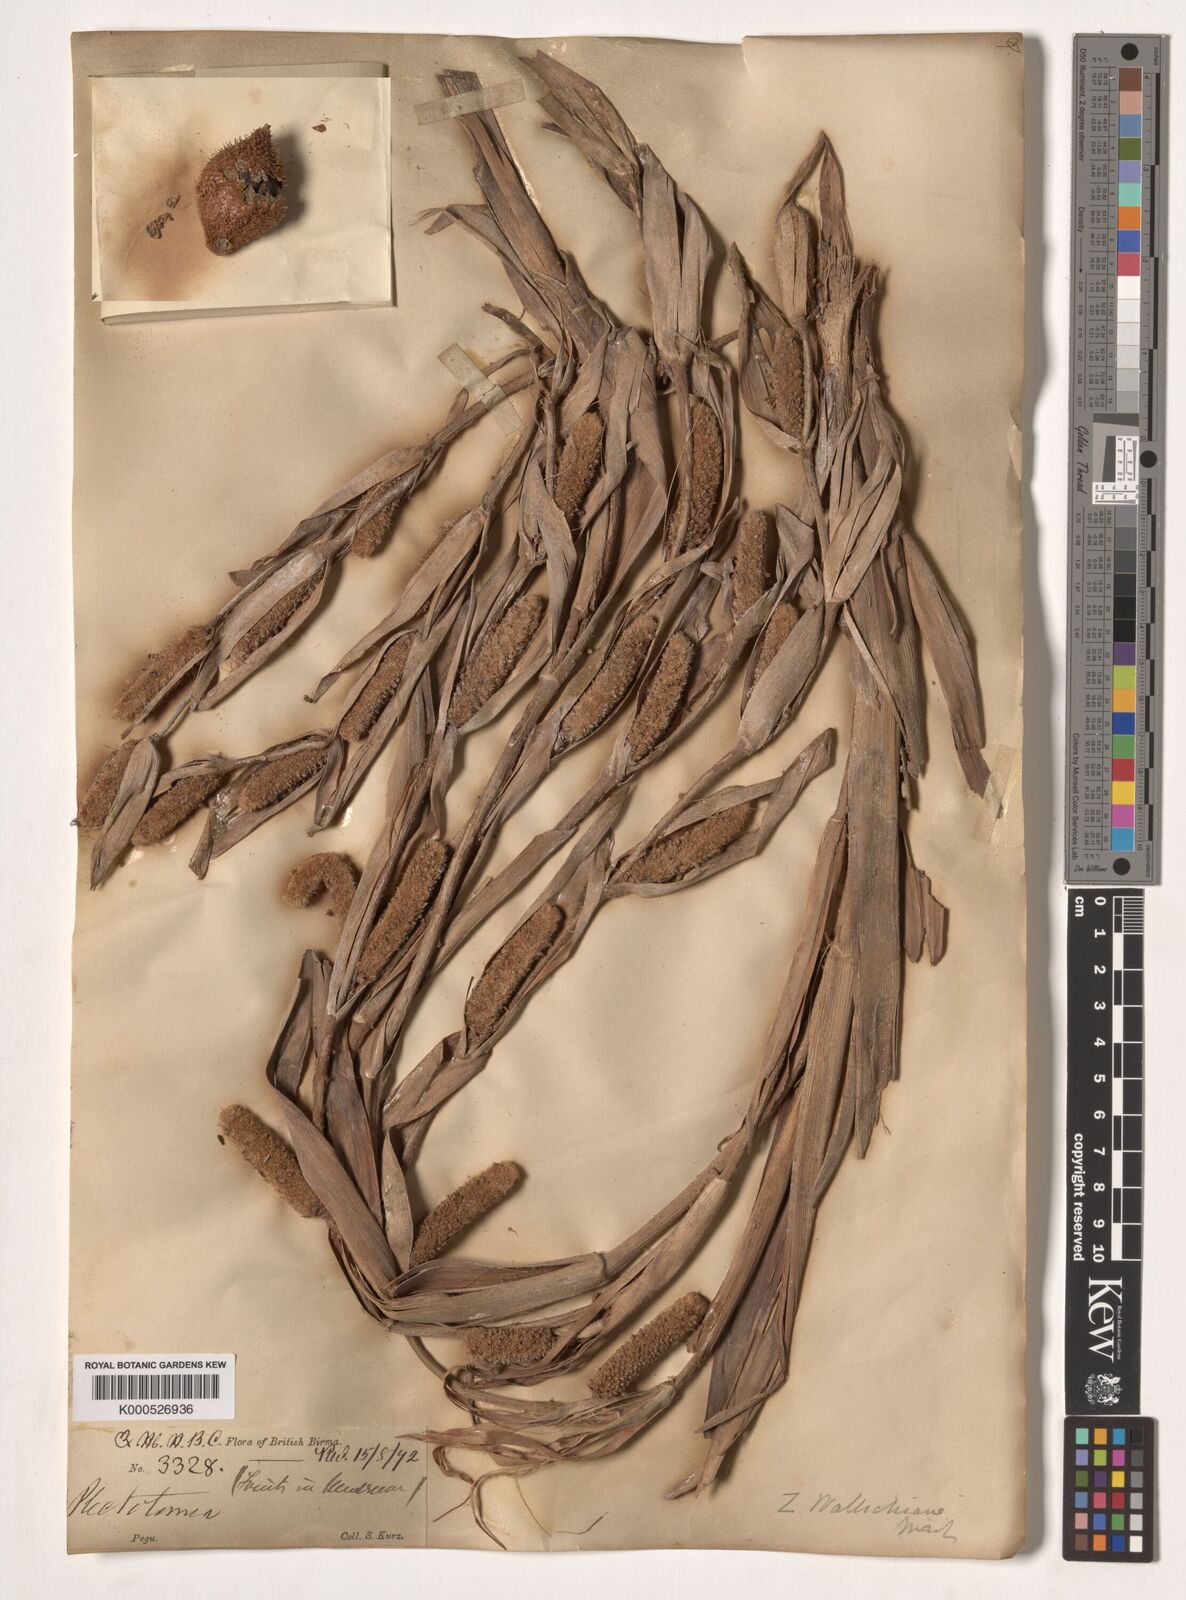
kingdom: Plantae
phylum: Tracheophyta
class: Liliopsida
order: Arecales
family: Arecaceae
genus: Salacca
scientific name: Salacca wallichiana
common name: Rakum palm
